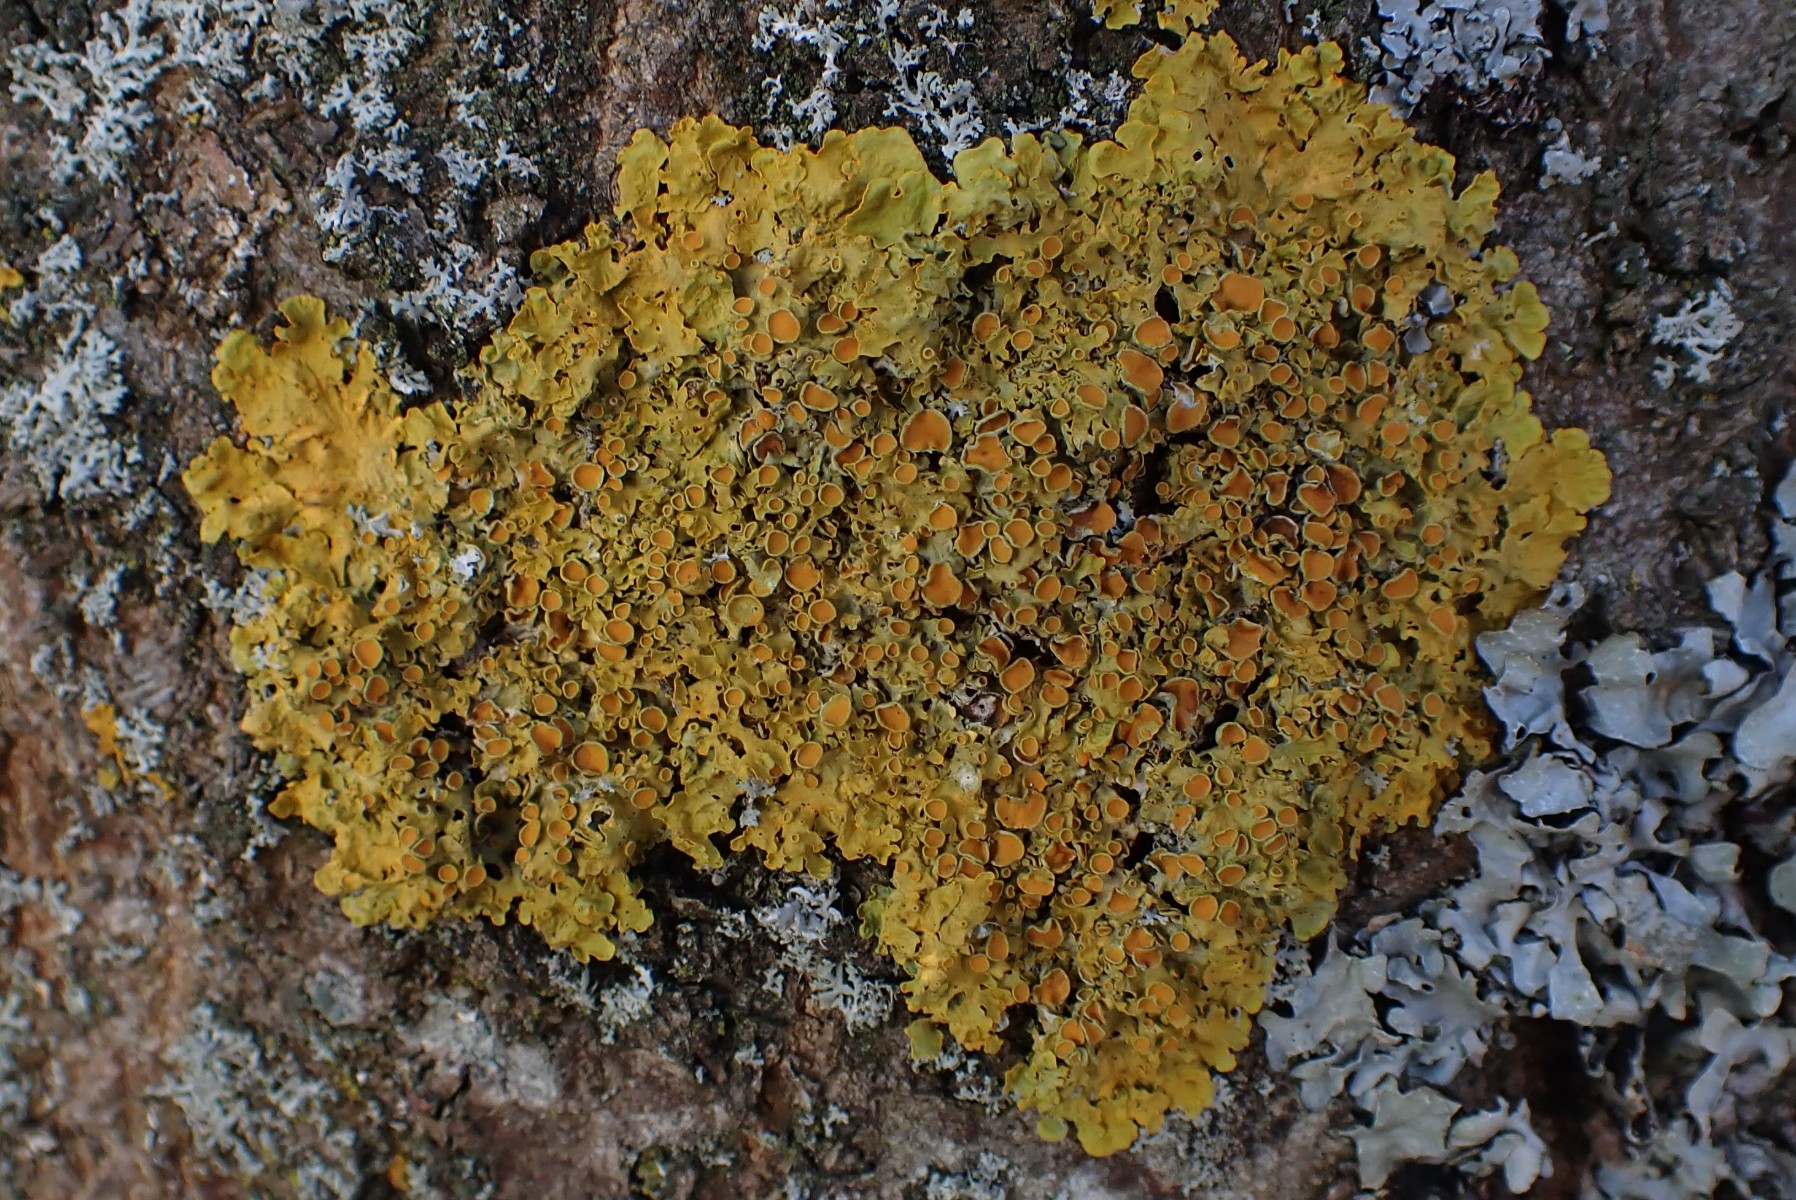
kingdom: Fungi
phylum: Ascomycota
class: Lecanoromycetes
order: Teloschistales
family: Teloschistaceae
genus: Xanthoria
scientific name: Xanthoria parietina
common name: almindelig væggelav
